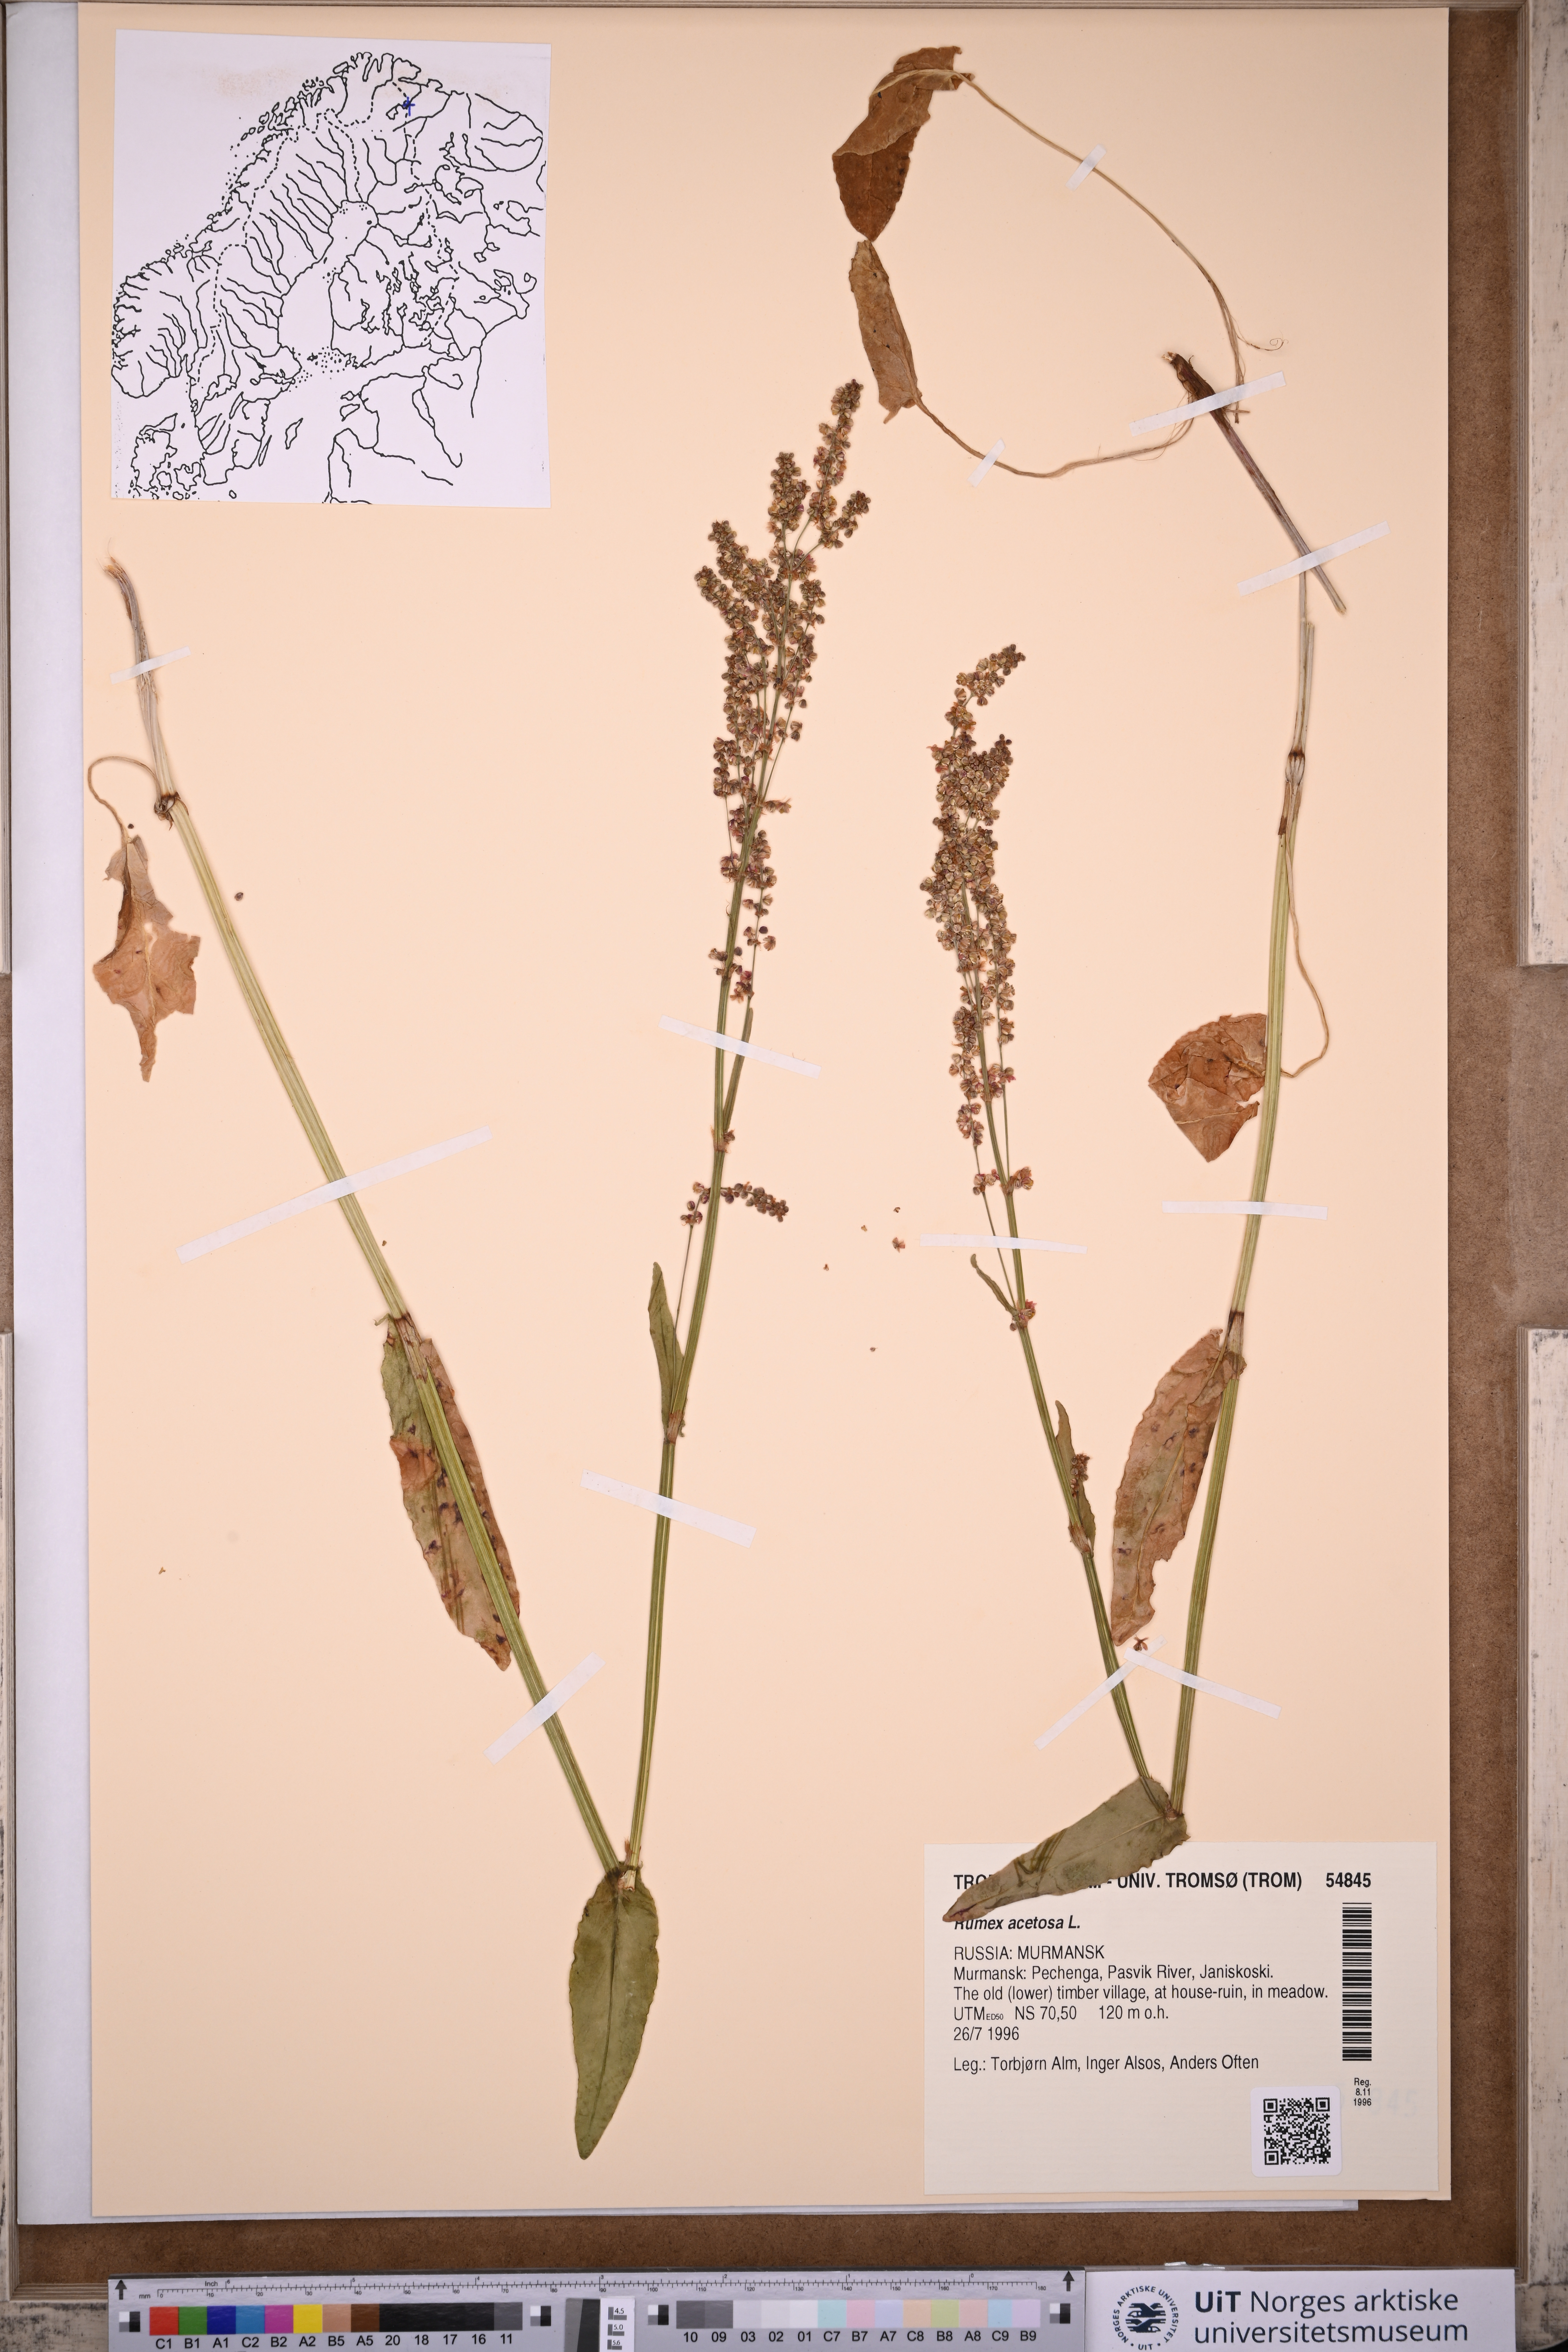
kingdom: Plantae
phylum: Tracheophyta
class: Magnoliopsida
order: Caryophyllales
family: Polygonaceae
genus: Rumex
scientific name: Rumex acetosa
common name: Garden sorrel
